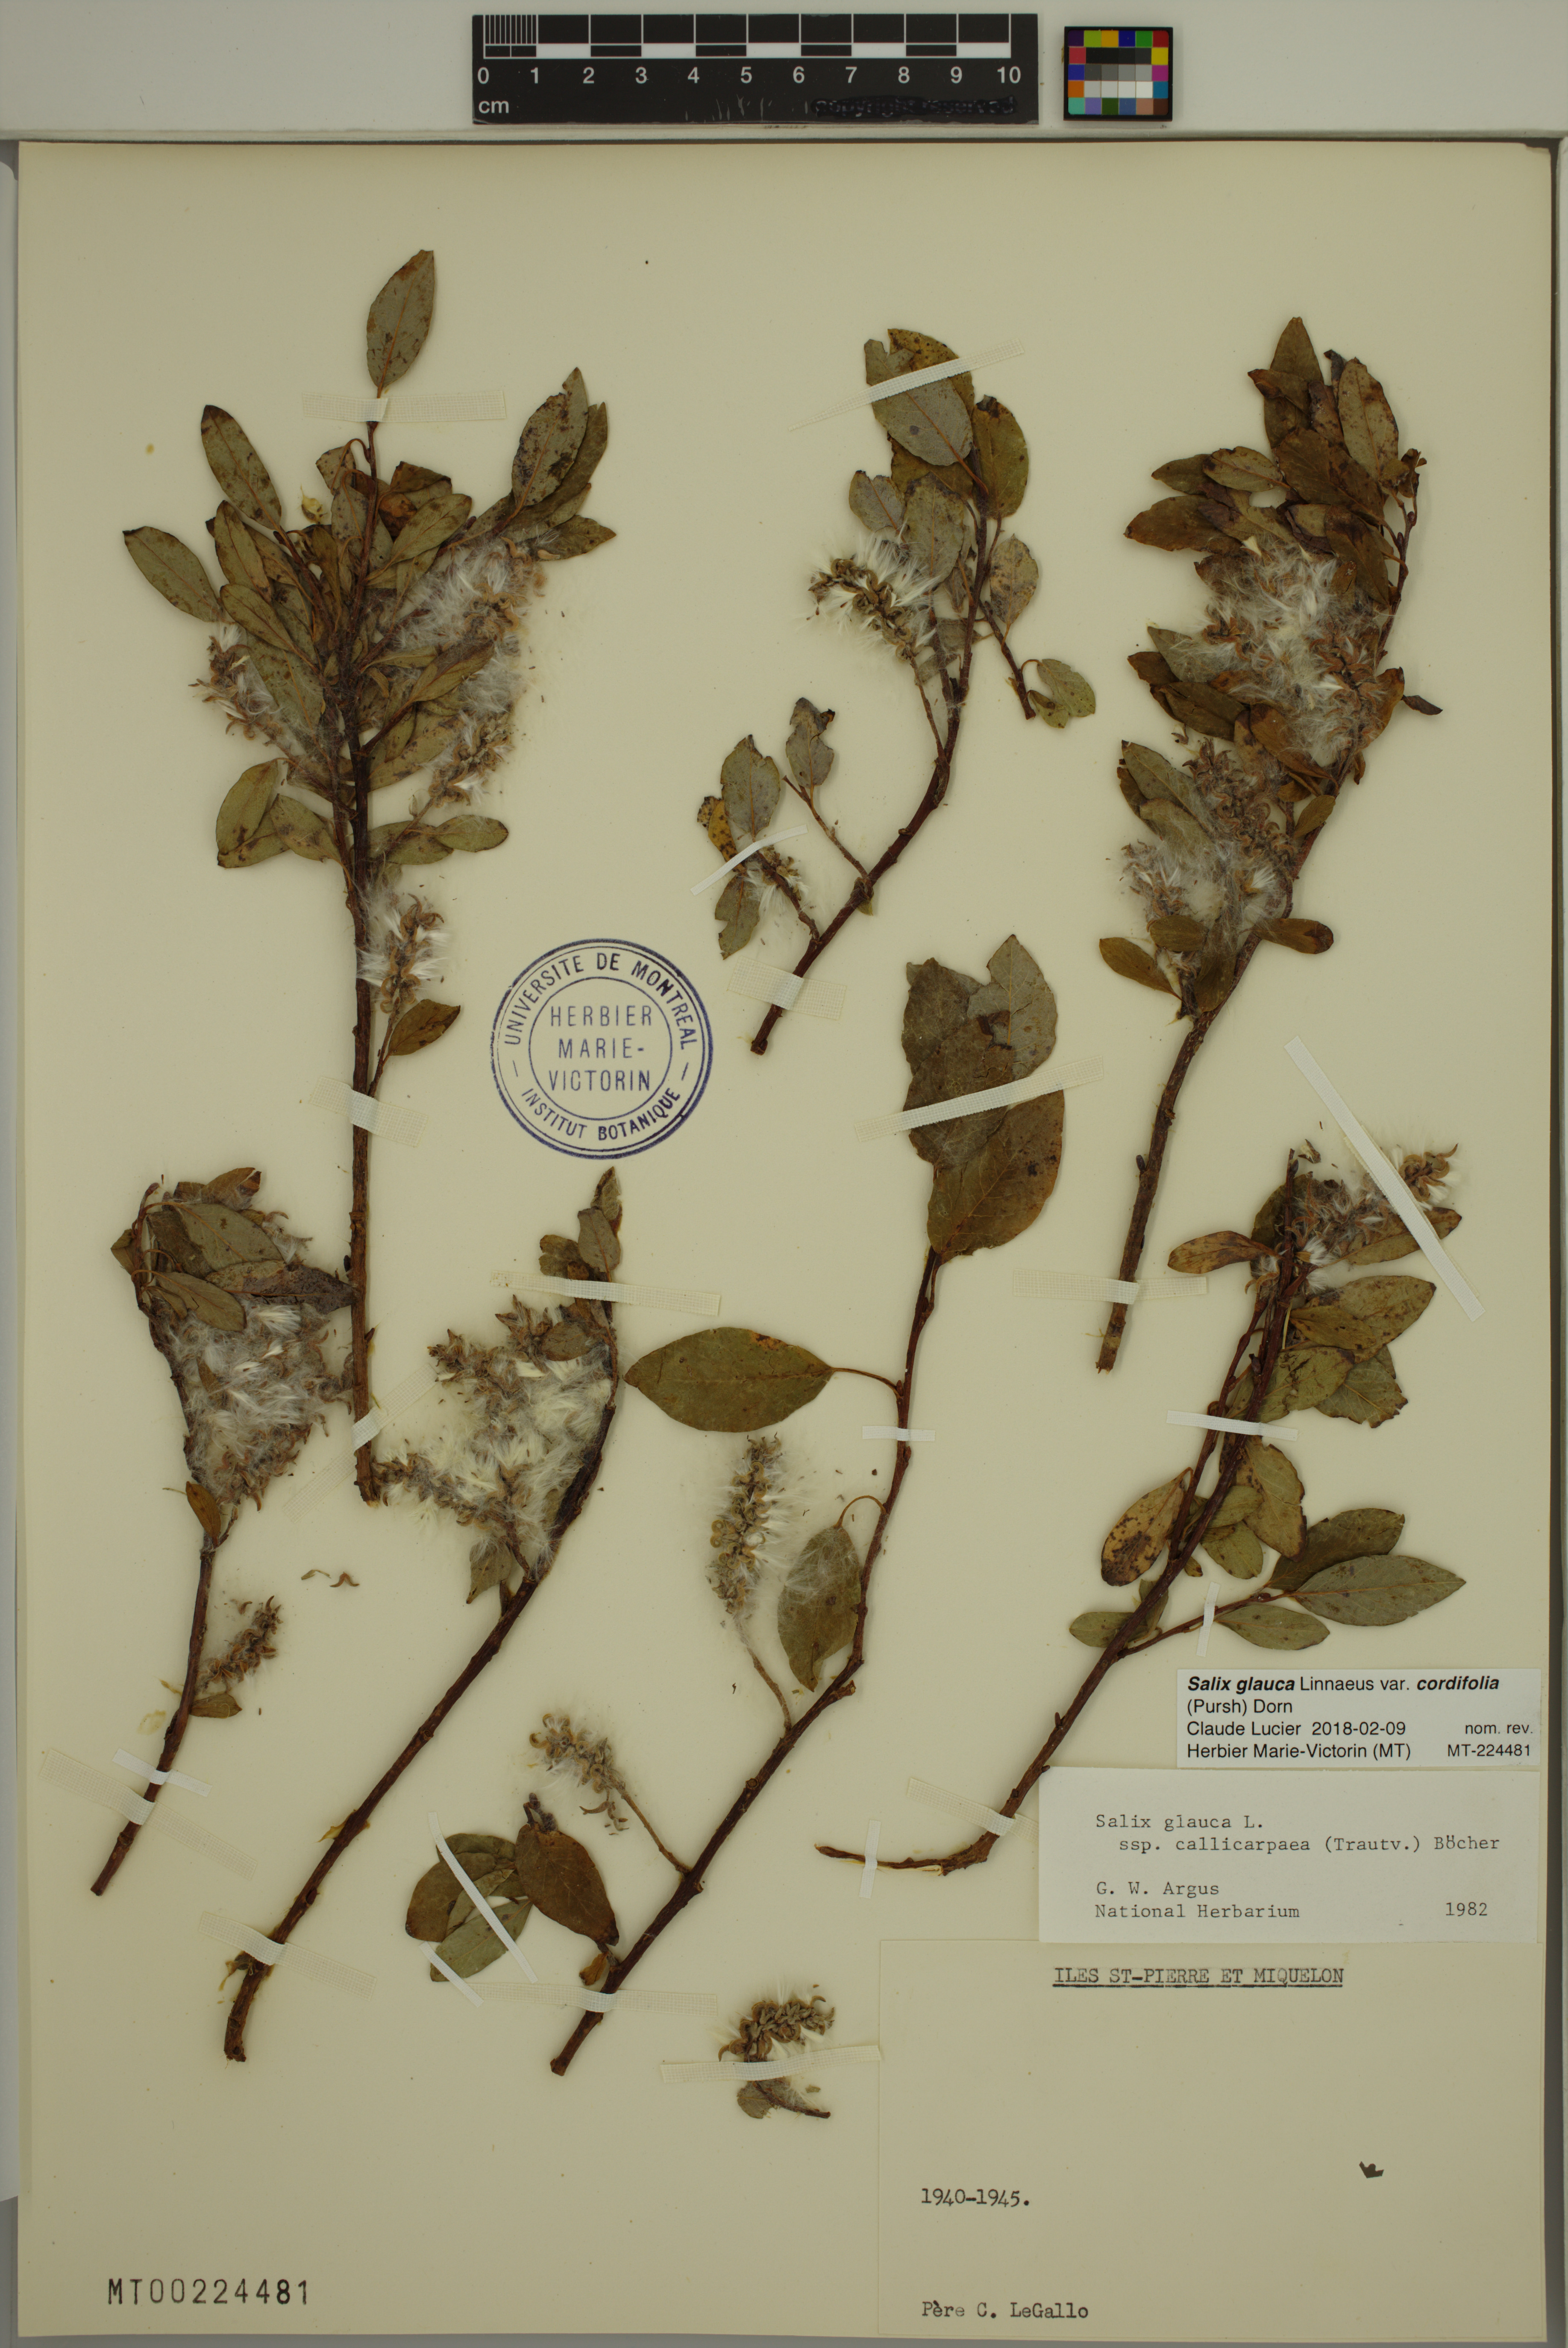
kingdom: Plantae
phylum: Tracheophyta
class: Magnoliopsida
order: Malpighiales
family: Salicaceae
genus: Salix
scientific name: Salix glauca
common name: Glaucous willow
